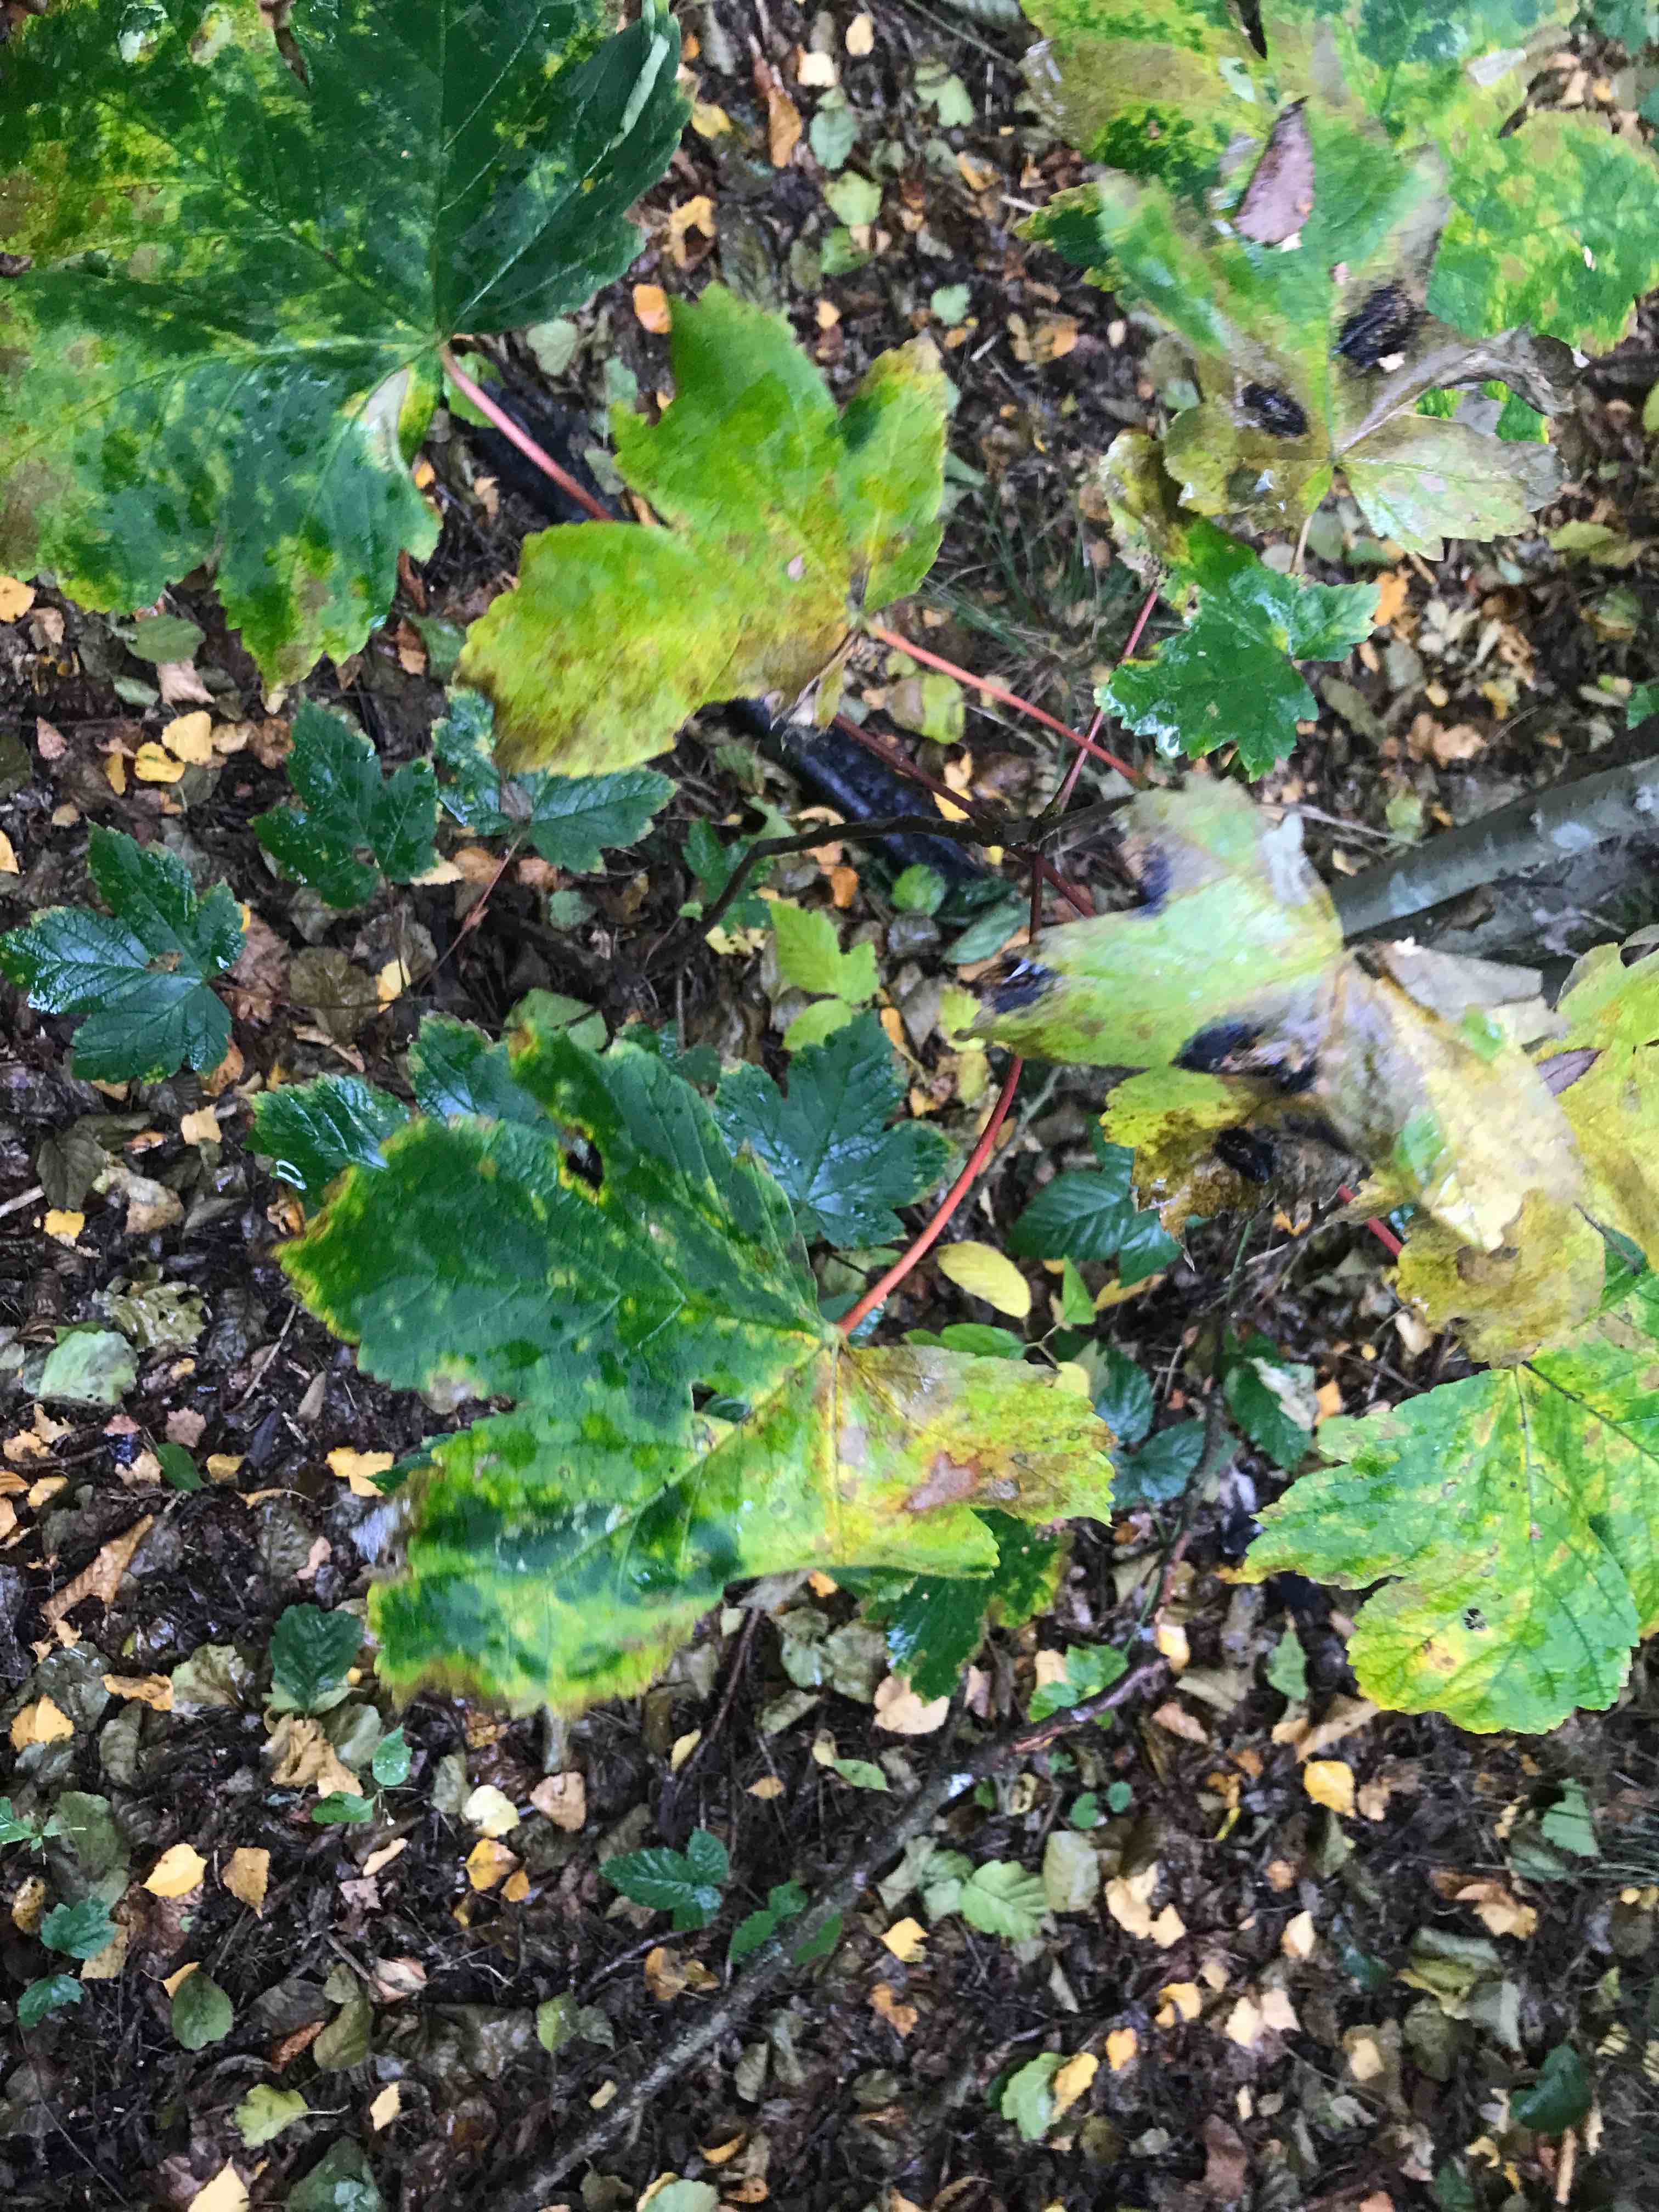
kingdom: Fungi
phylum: Ascomycota
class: Leotiomycetes
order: Rhytismatales
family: Rhytismataceae
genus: Rhytisma
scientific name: Rhytisma acerinum
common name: ahorn-rynkeplet
